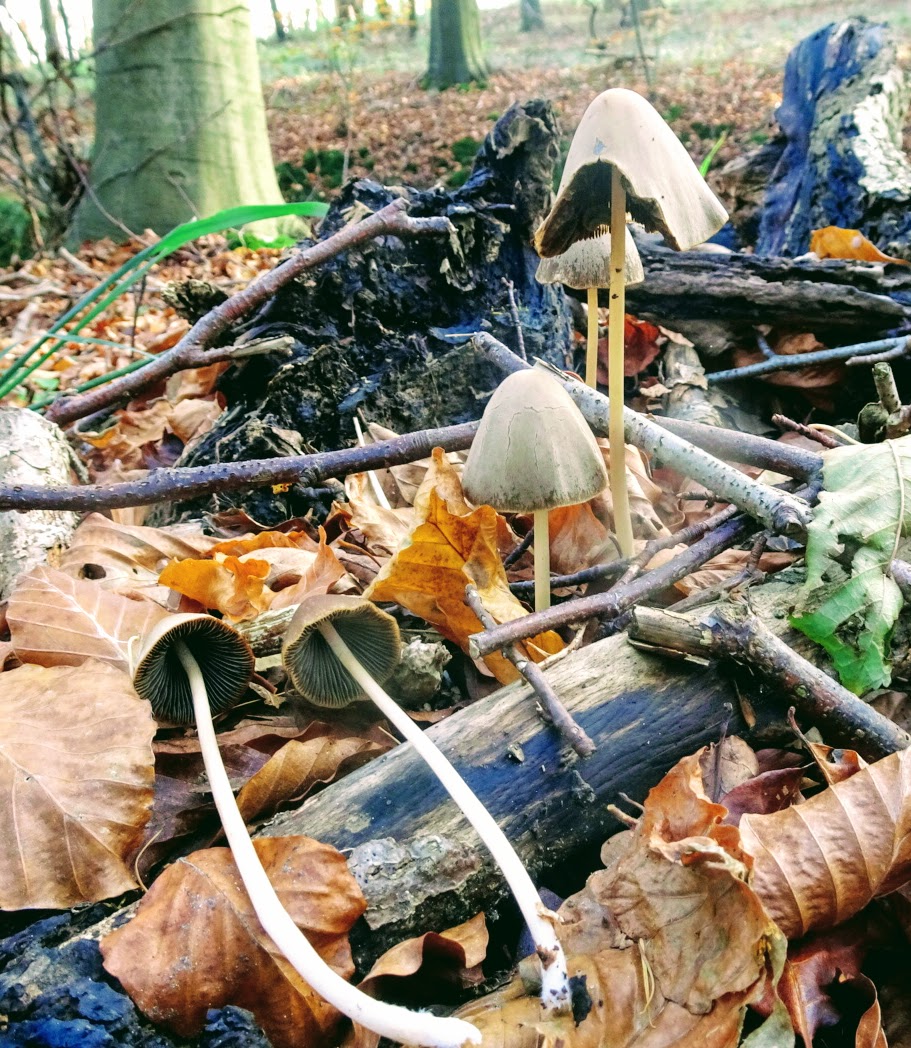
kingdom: Fungi
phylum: Basidiomycota
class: Agaricomycetes
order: Agaricales
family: Psathyrellaceae
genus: Parasola
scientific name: Parasola conopilea
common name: kegle-hjulhat
